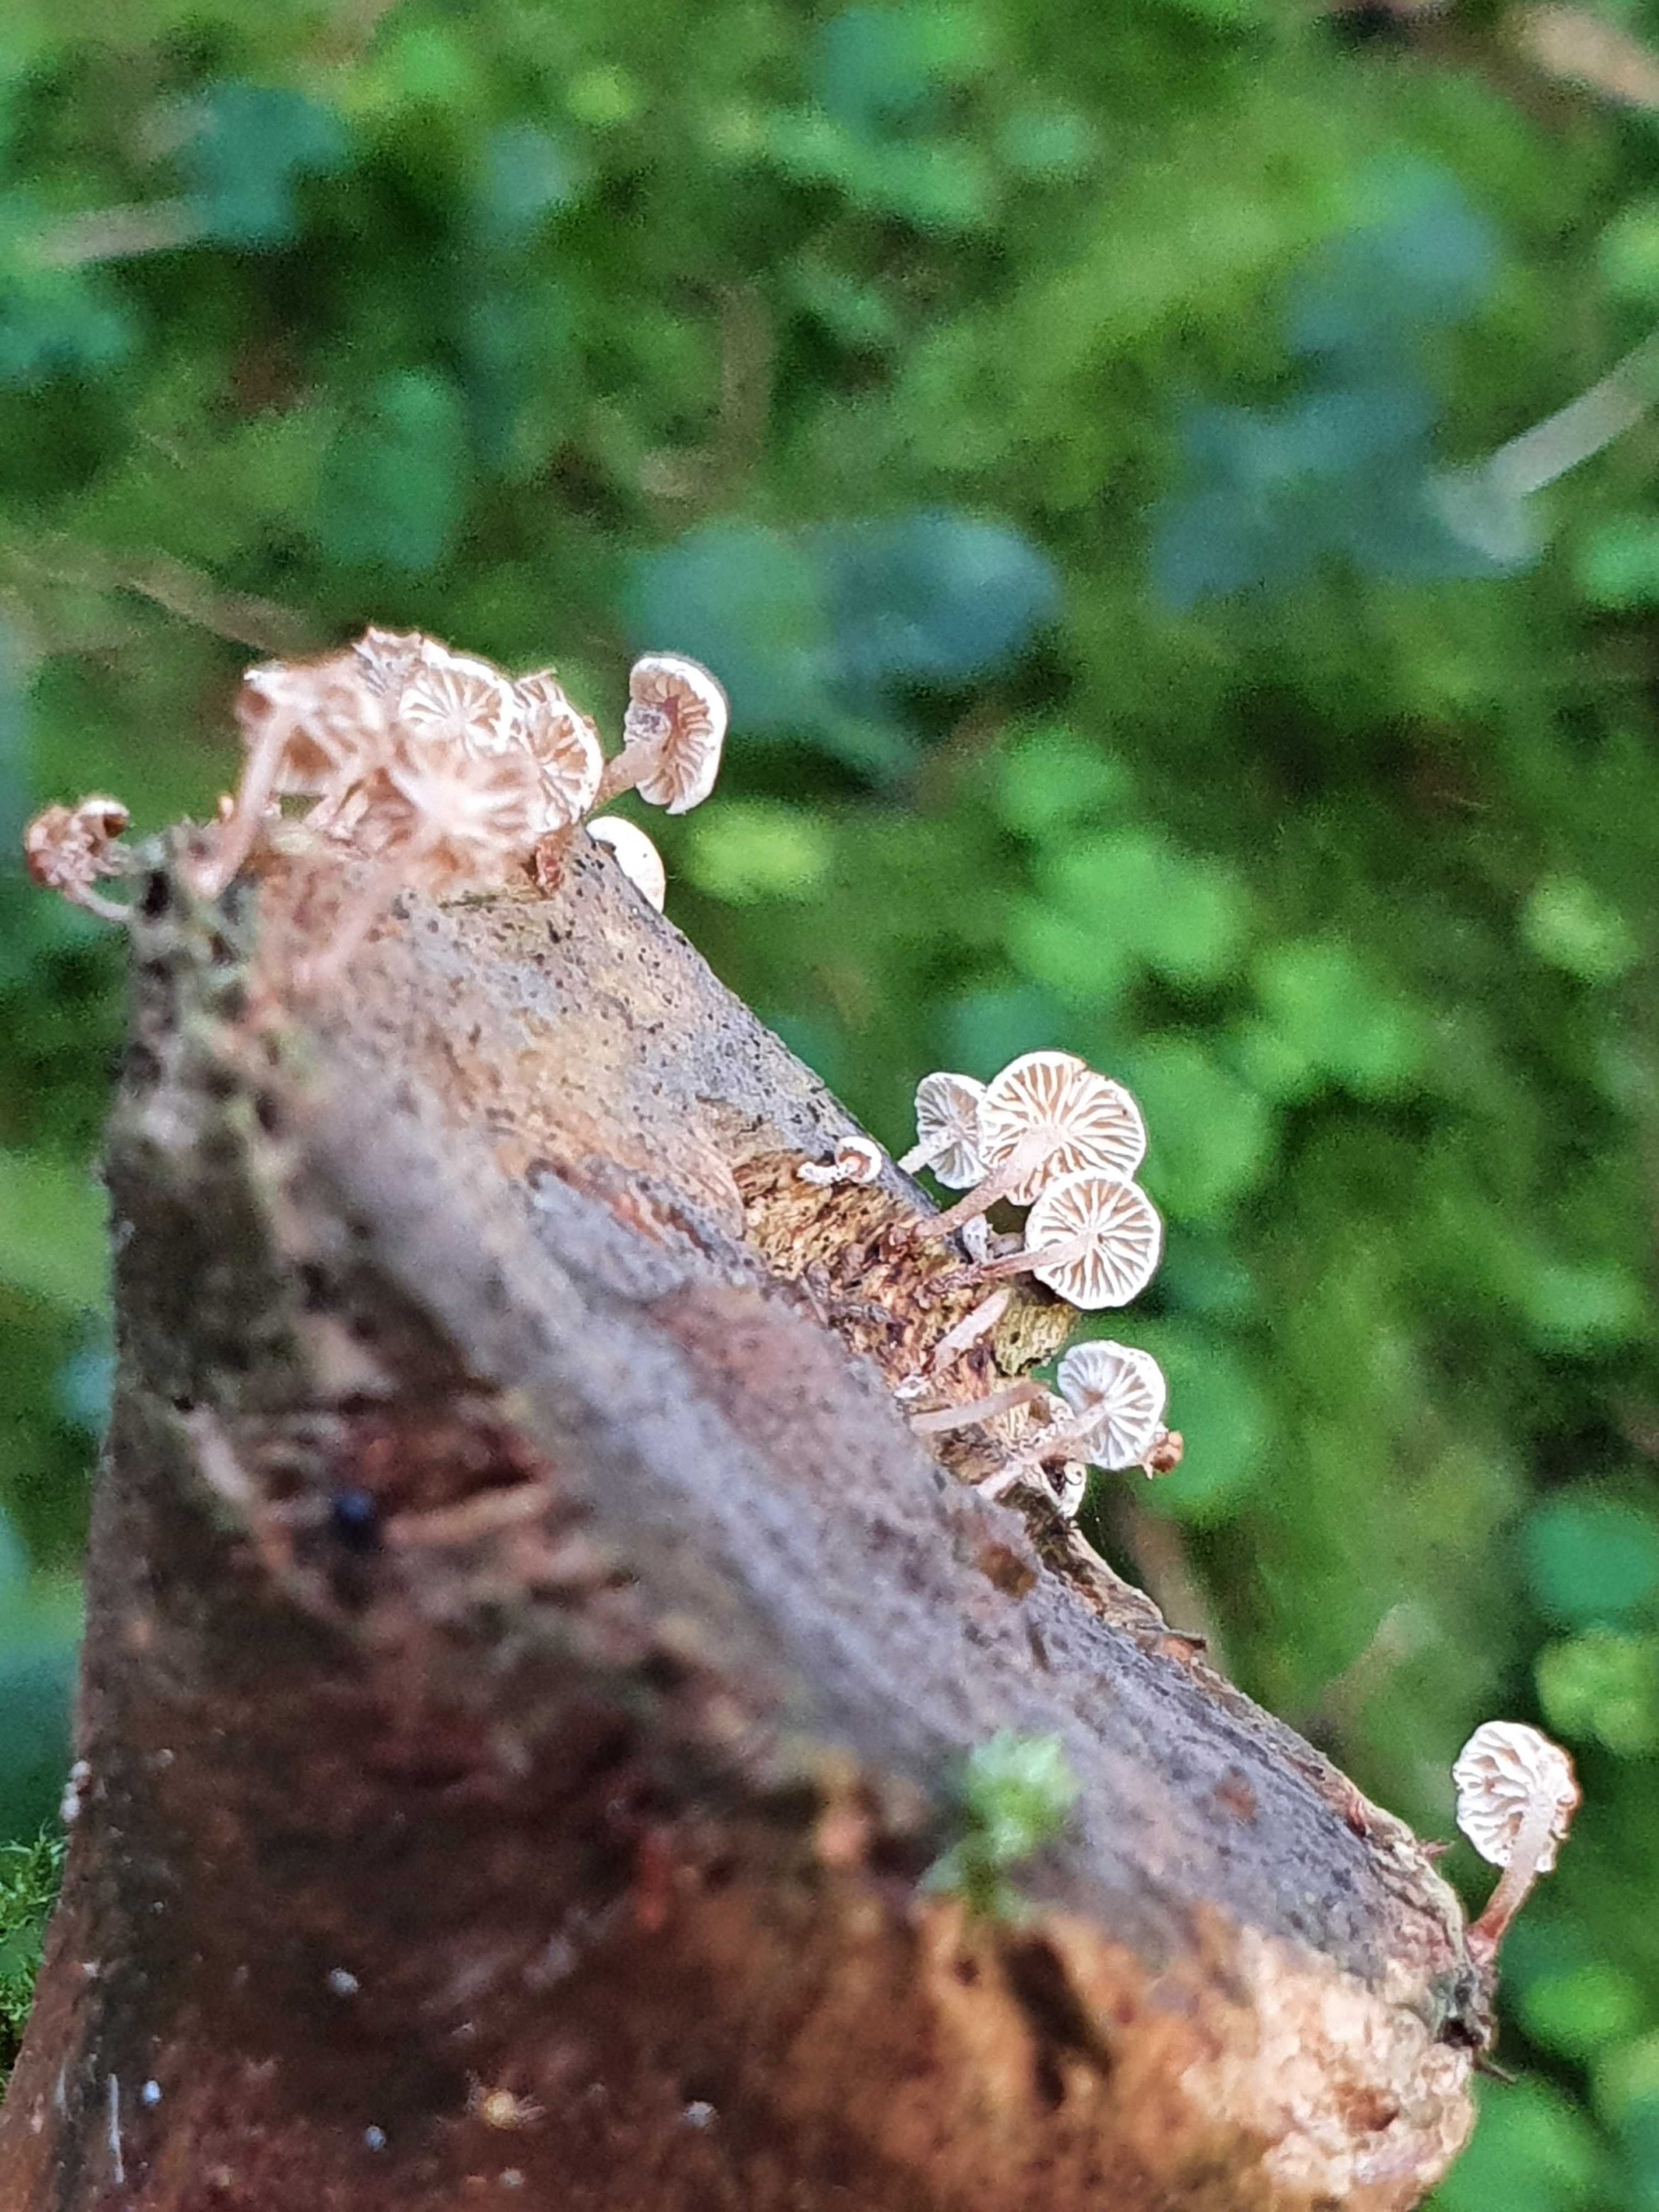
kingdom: Fungi
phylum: Basidiomycota
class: Agaricomycetes
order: Agaricales
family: Omphalotaceae
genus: Collybiopsis
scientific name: Collybiopsis ramealis
